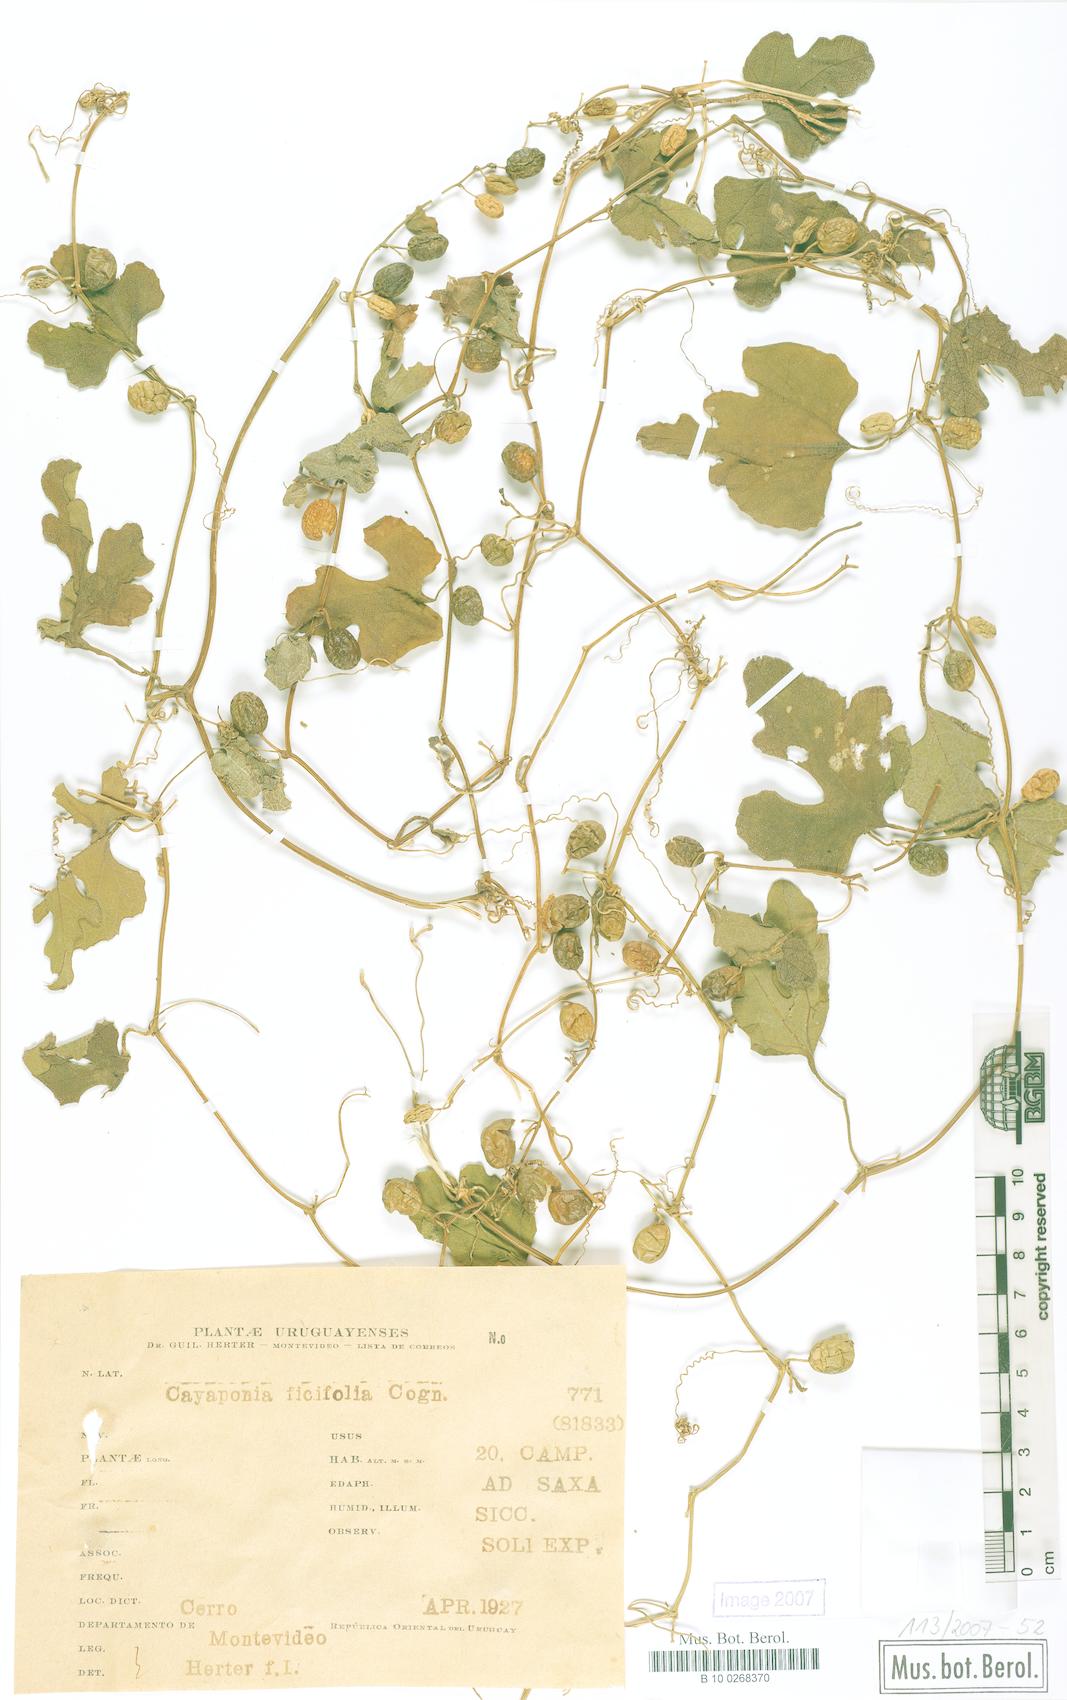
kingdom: Plantae
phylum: Tracheophyta
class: Magnoliopsida
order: Cucurbitales
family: Cucurbitaceae
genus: Cayaponia
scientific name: Cayaponia bonariensis
